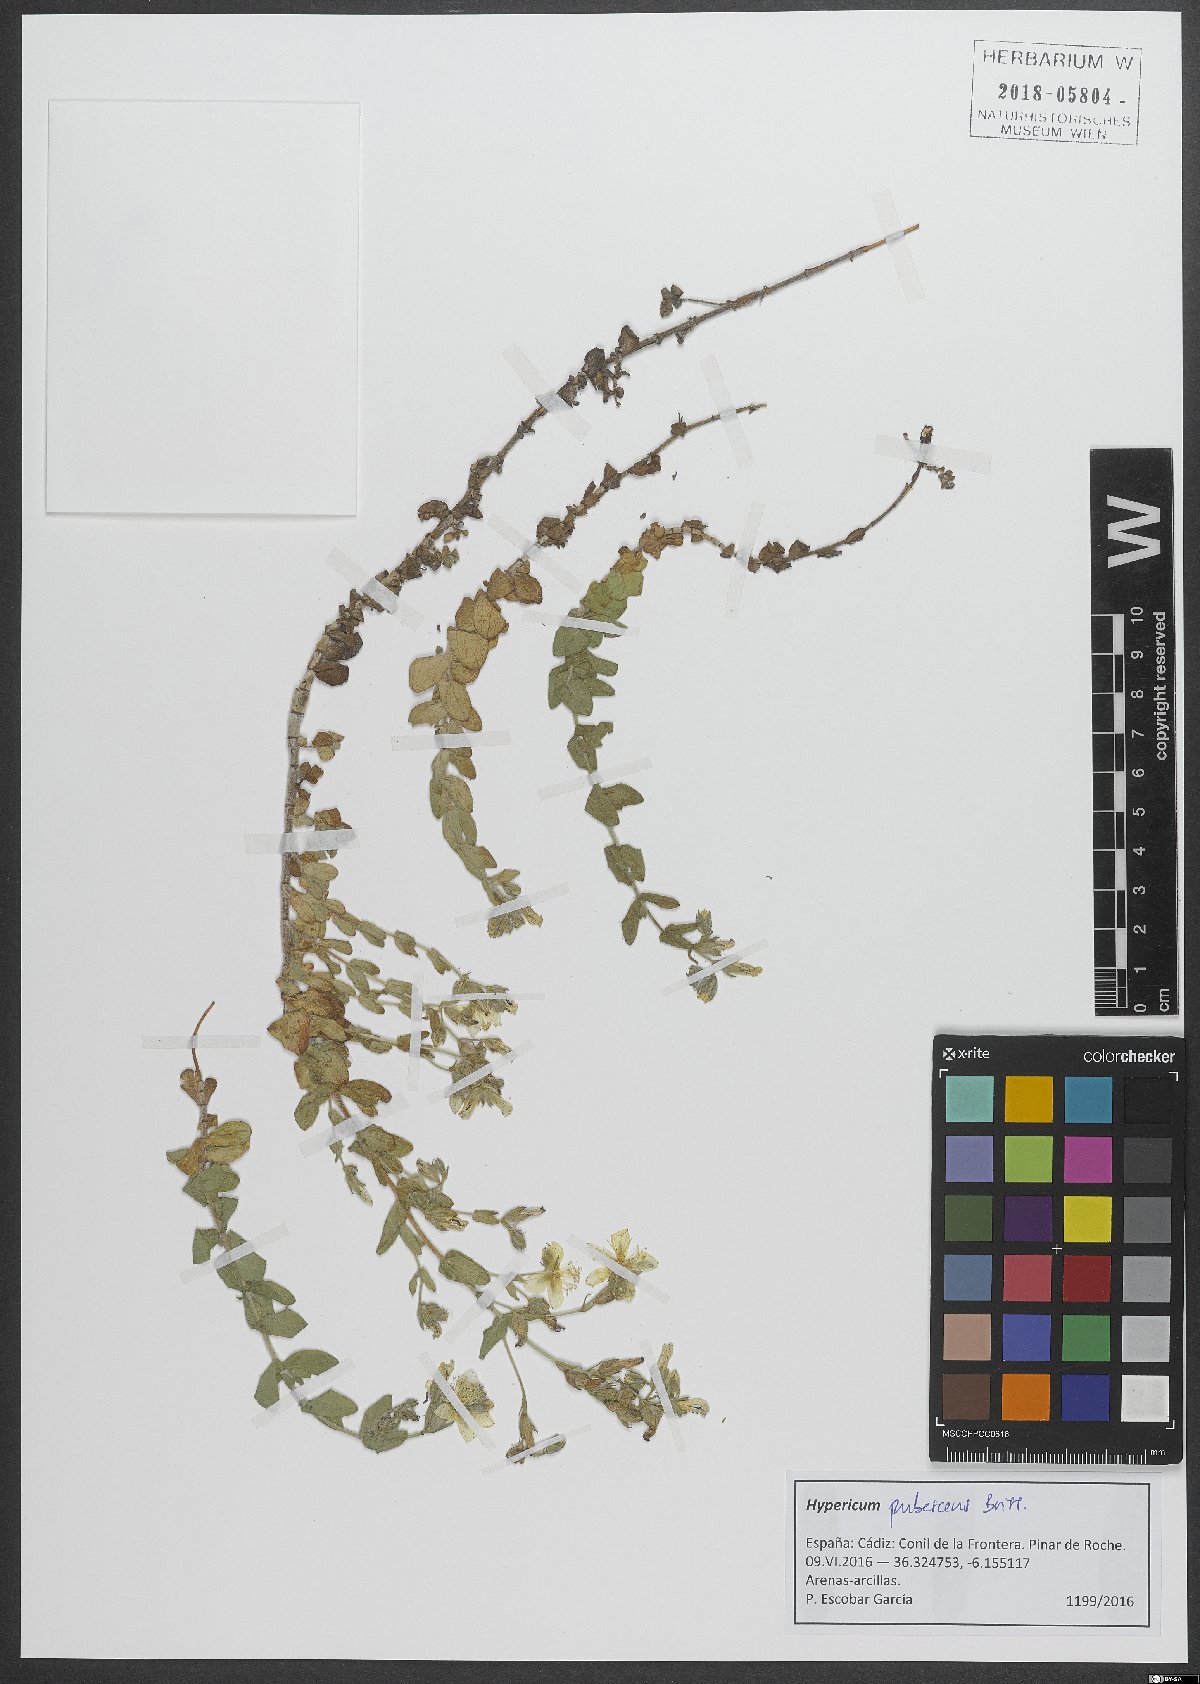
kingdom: Plantae
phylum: Tracheophyta
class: Magnoliopsida
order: Malpighiales
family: Hypericaceae
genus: Hypericum
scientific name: Hypericum pubescens
